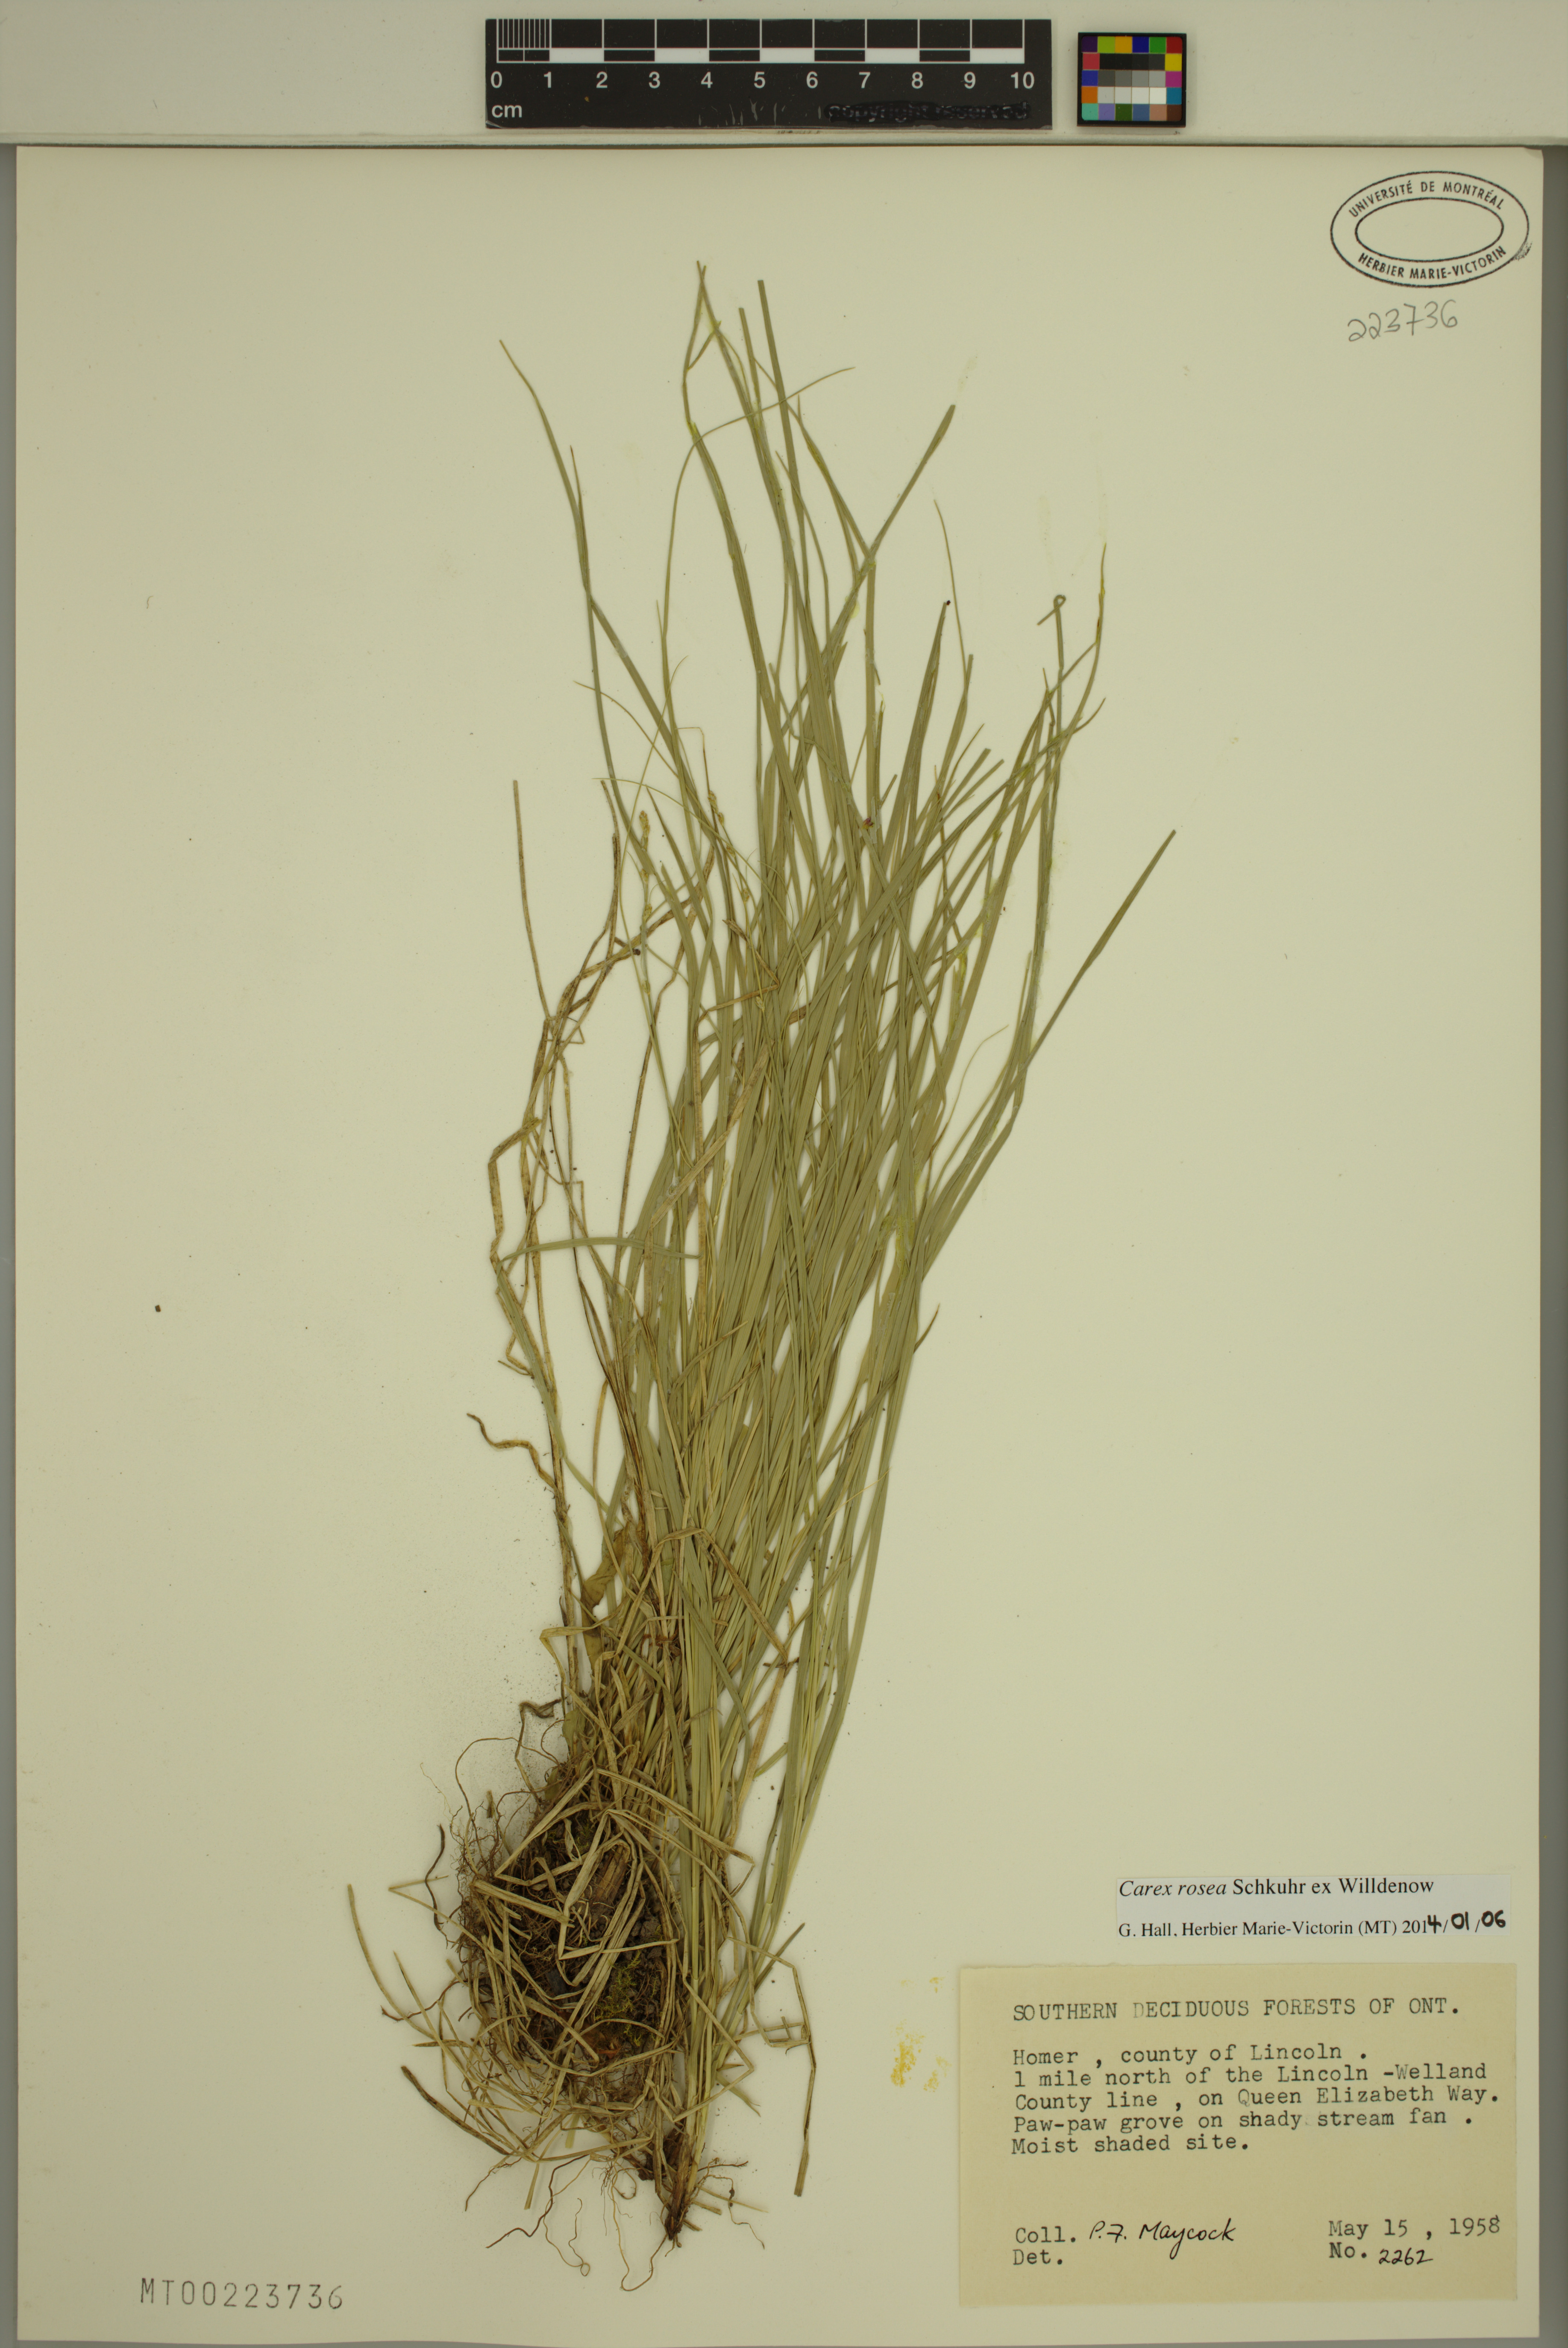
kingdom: Plantae
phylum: Tracheophyta
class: Liliopsida
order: Poales
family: Cyperaceae
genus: Carex
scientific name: Carex rosea
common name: Curly-styled wood sedge
